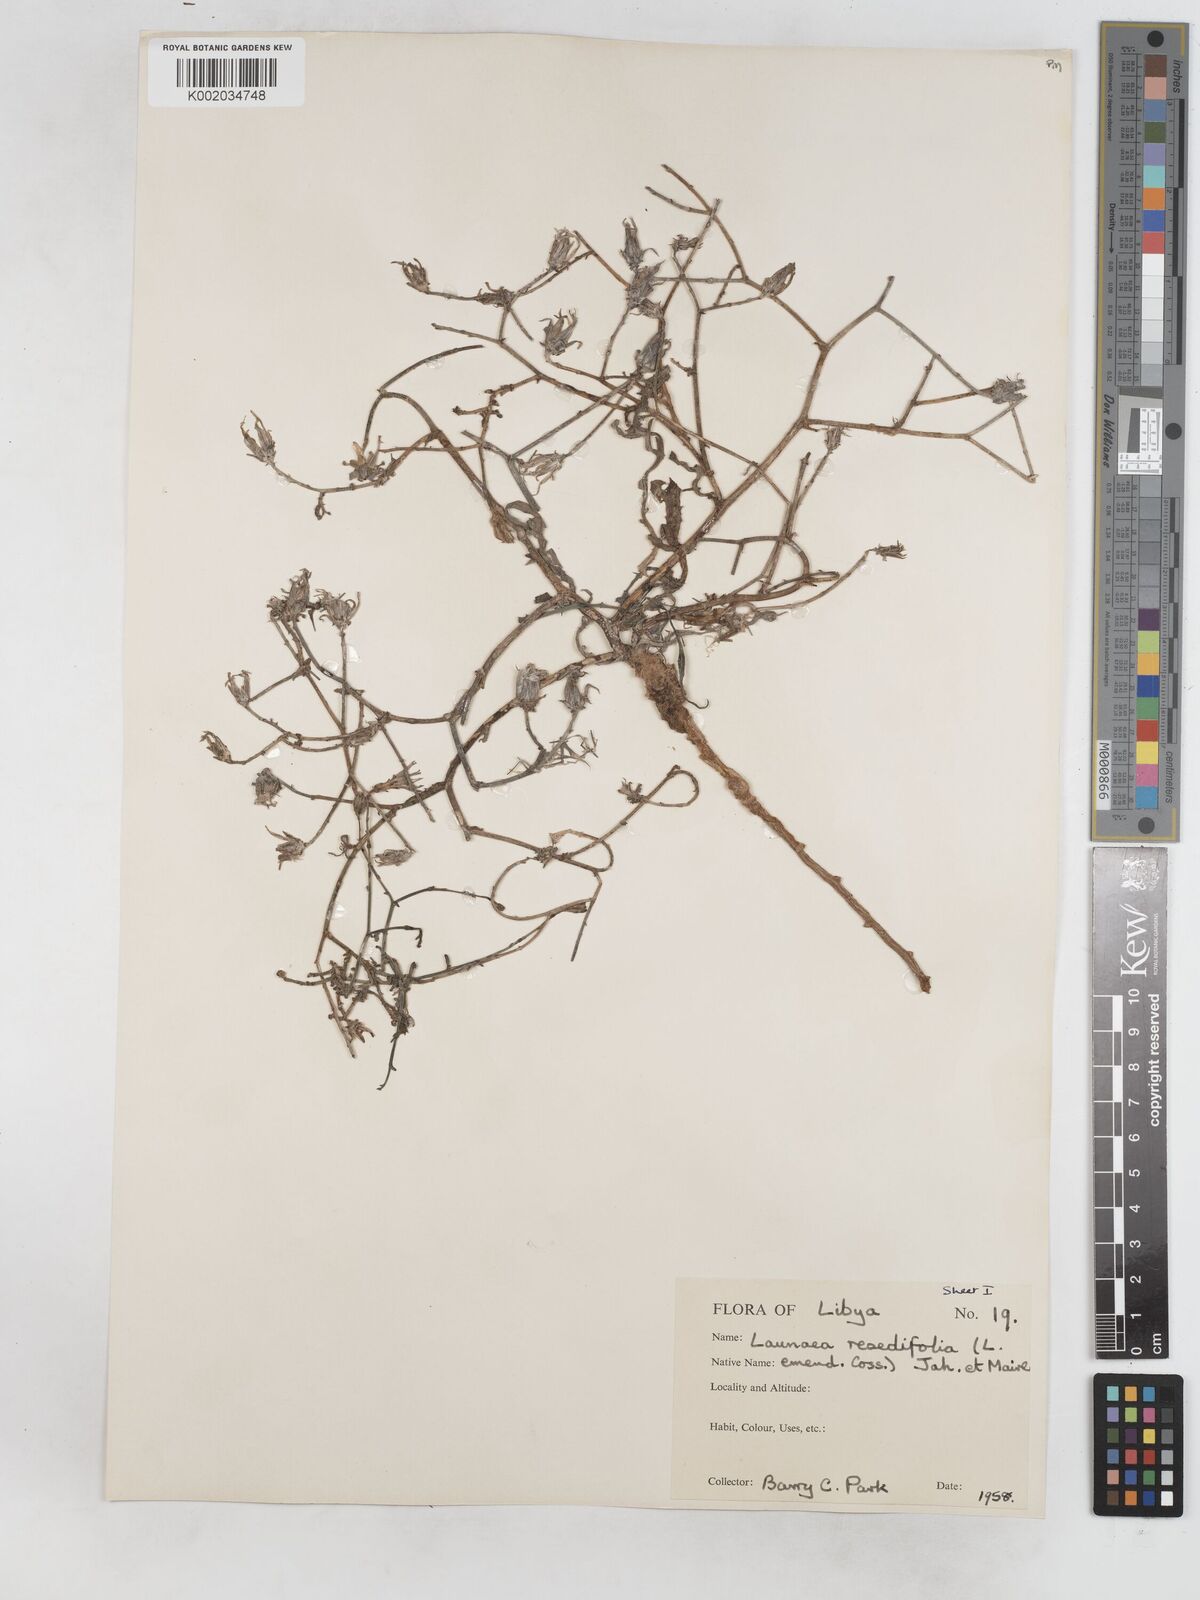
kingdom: Plantae
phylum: Tracheophyta
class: Magnoliopsida
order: Asterales
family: Asteraceae
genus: Launaea
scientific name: Launaea fragilis
